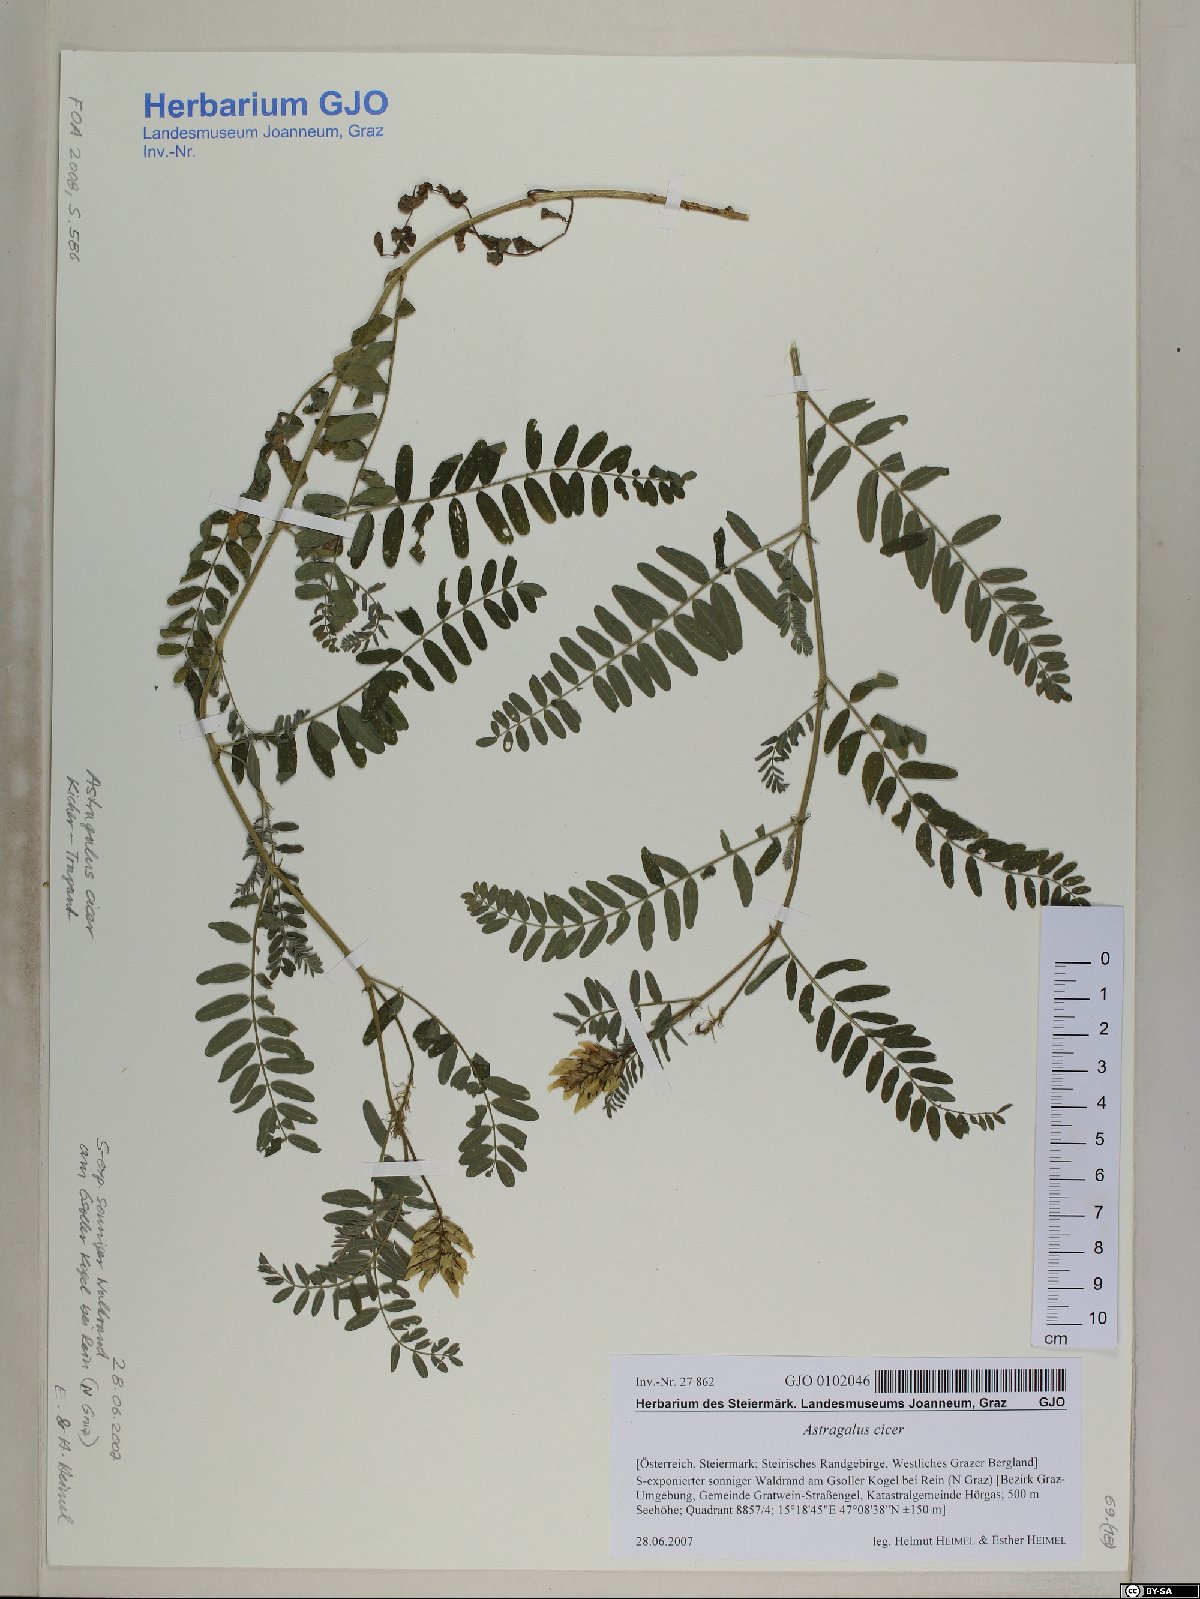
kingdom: Plantae
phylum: Tracheophyta
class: Magnoliopsida
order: Fabales
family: Fabaceae
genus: Astragalus
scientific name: Astragalus cicer
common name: Chick-pea milk-vetch
